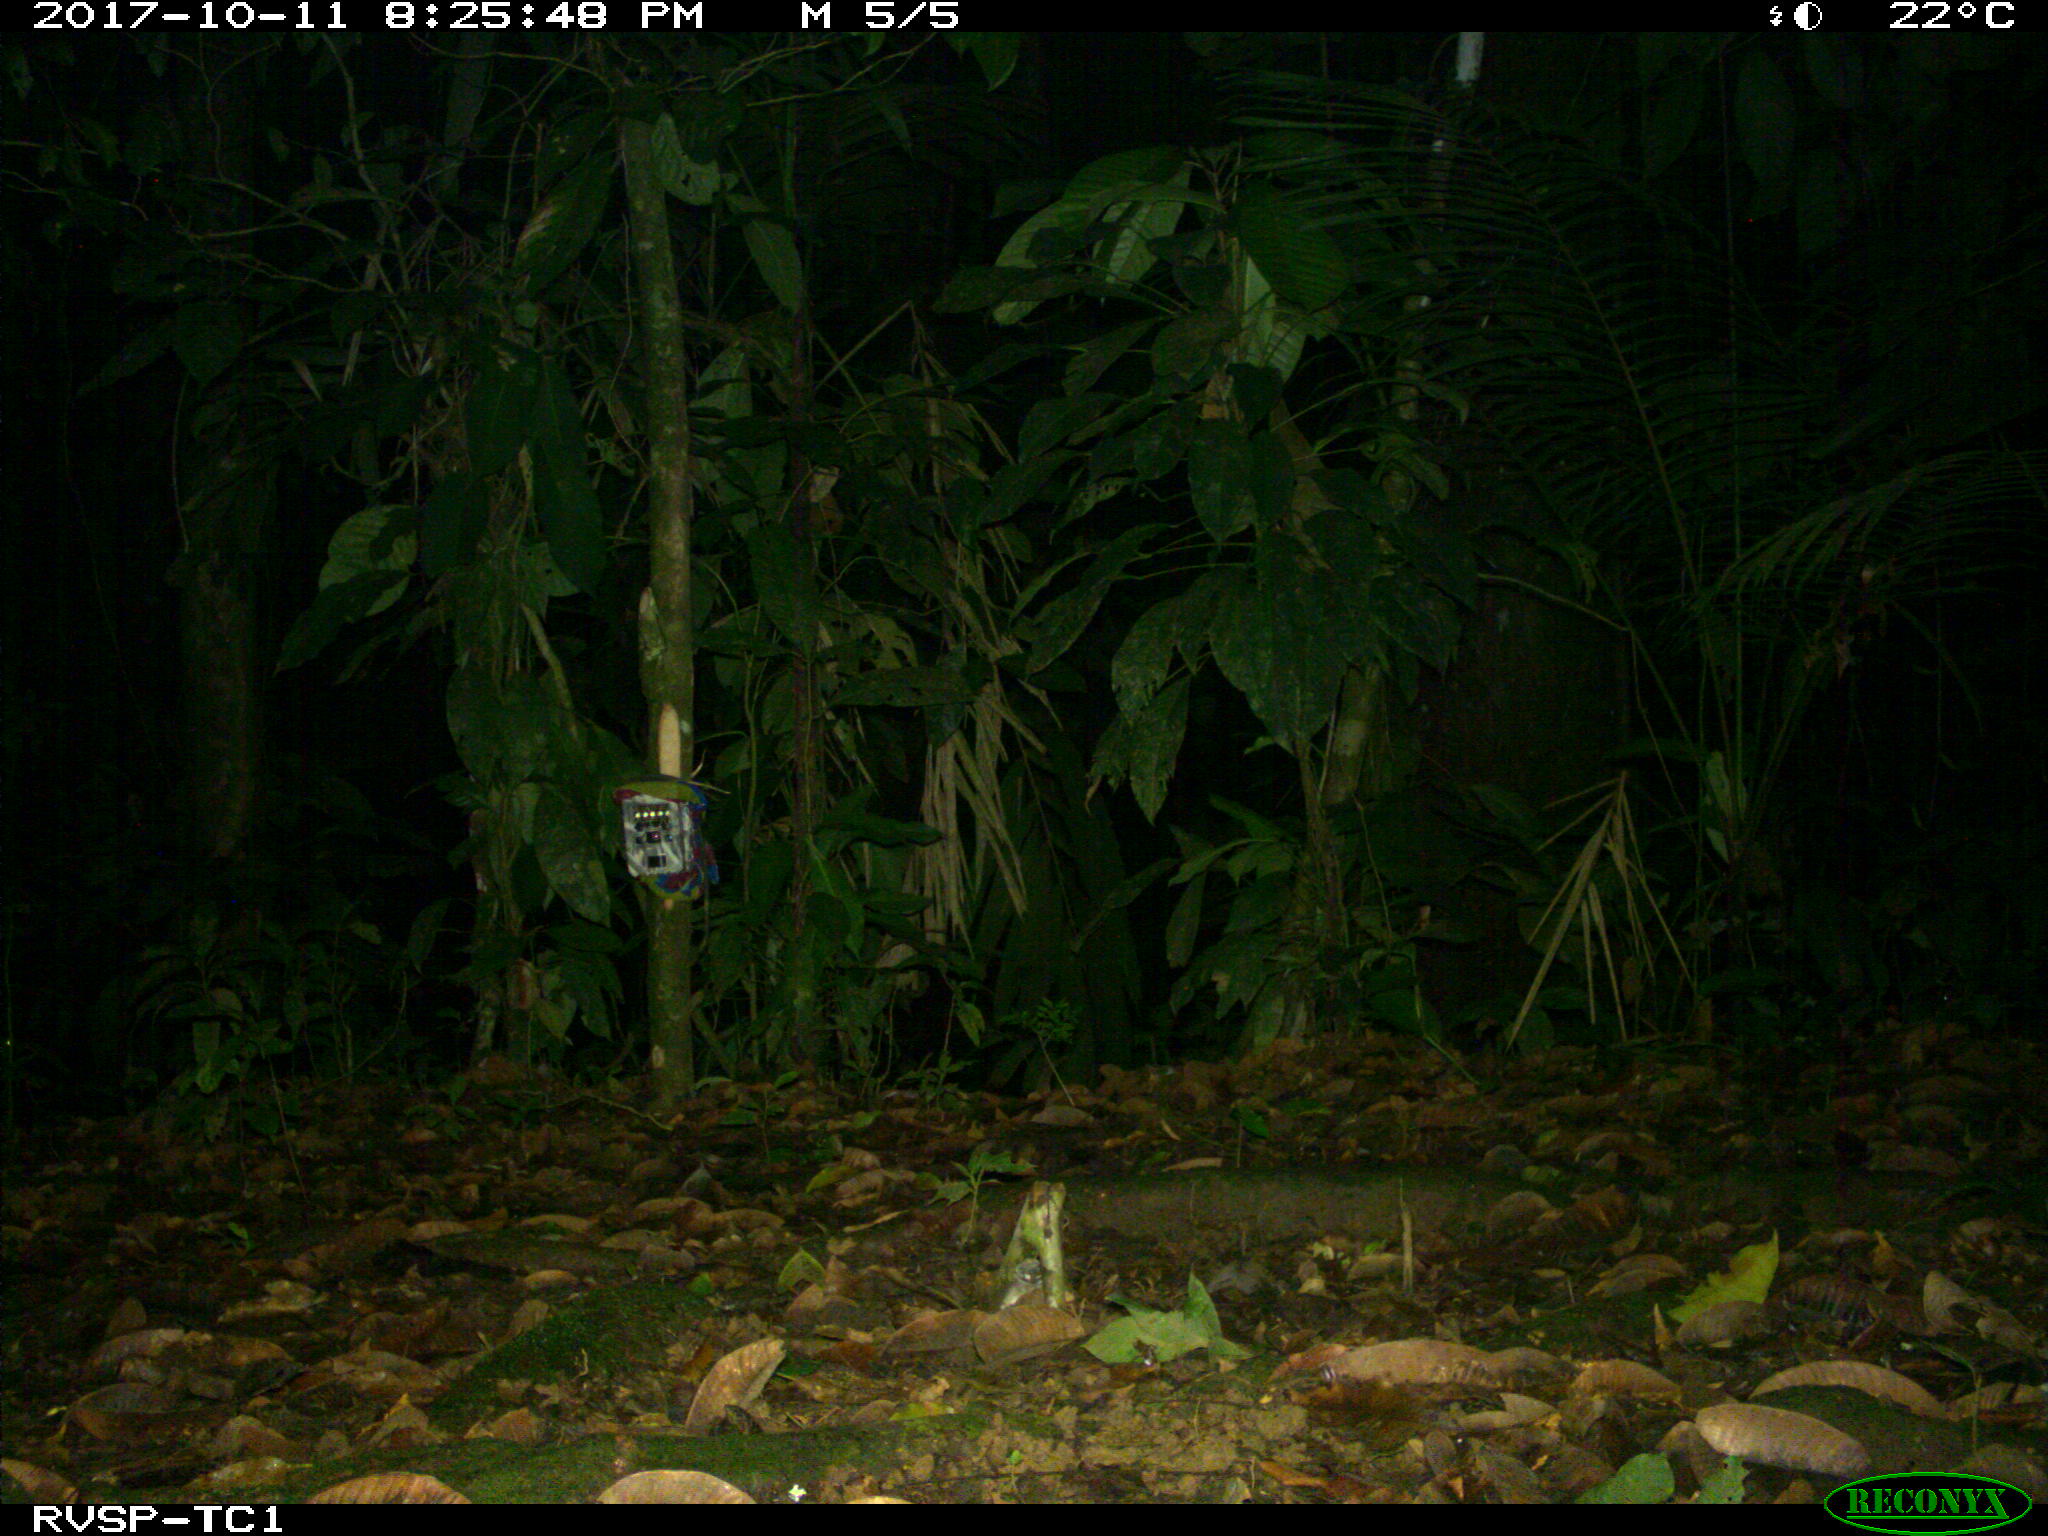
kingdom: Animalia
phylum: Chordata
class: Mammalia
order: Carnivora
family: Felidae
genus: Leopardus
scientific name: Leopardus pardalis
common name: Ocelot
